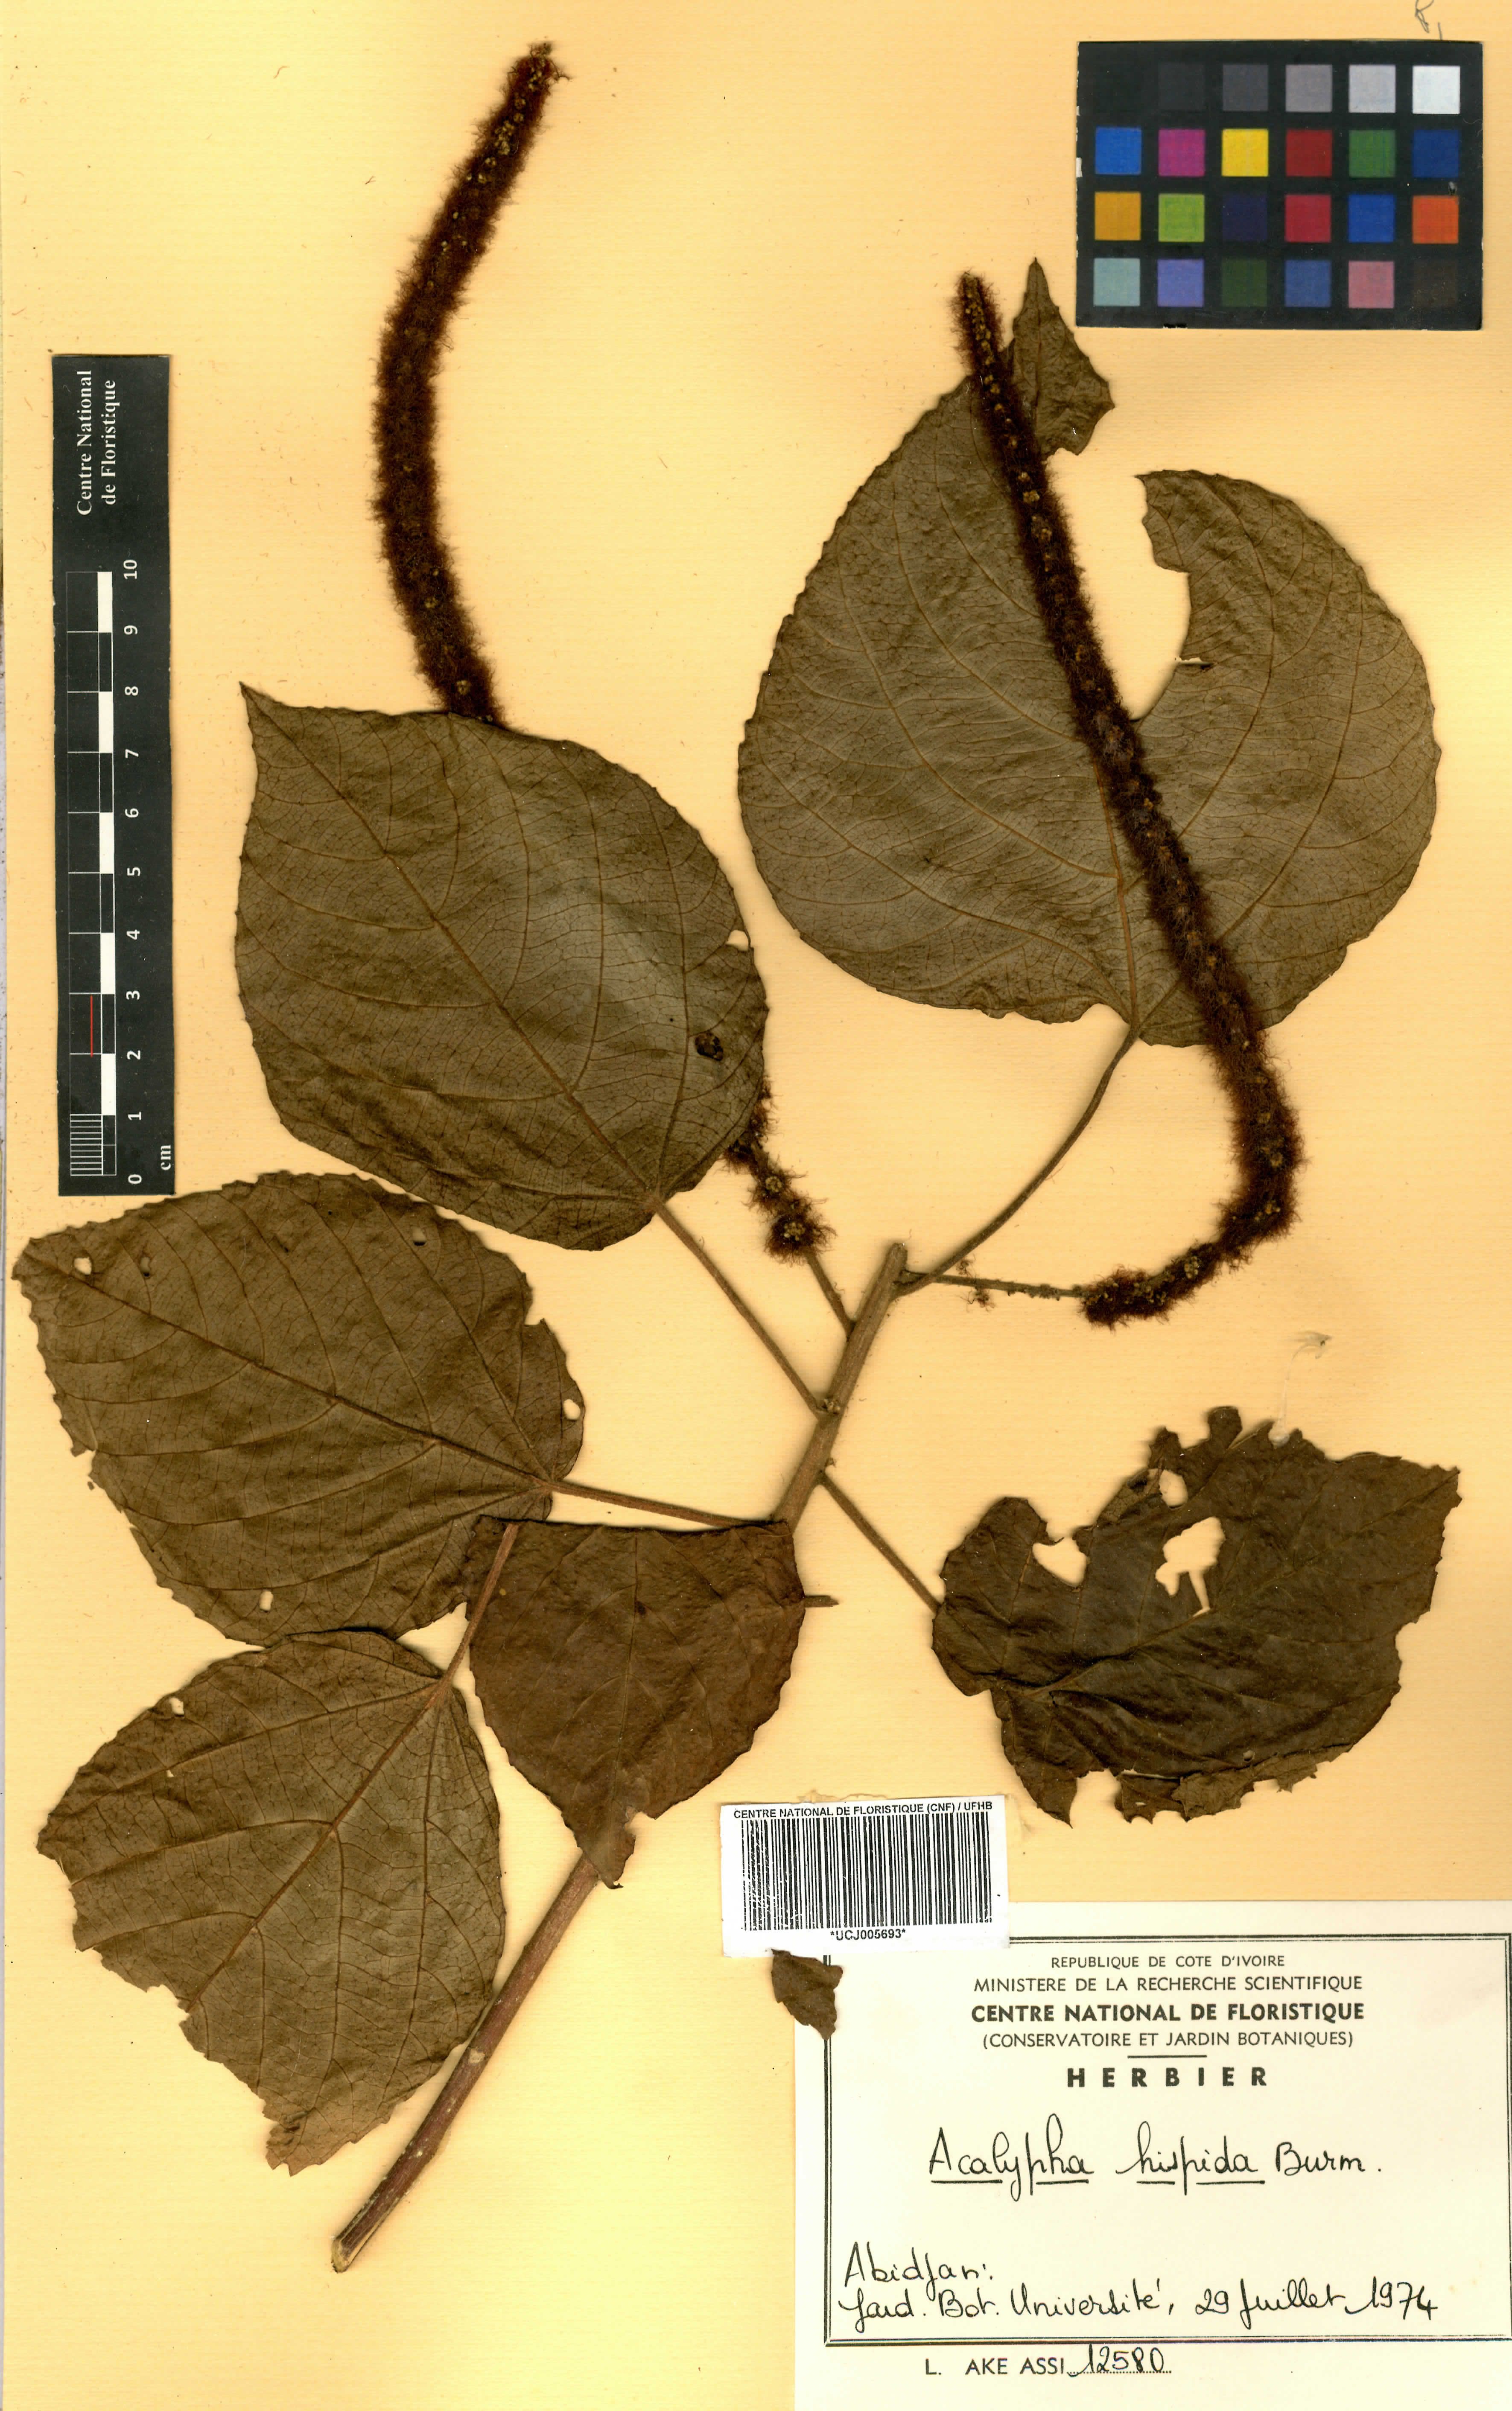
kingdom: Plantae
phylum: Tracheophyta
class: Magnoliopsida
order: Malpighiales
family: Euphorbiaceae
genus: Acalypha
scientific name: Acalypha hispida
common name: Chenilleplant
